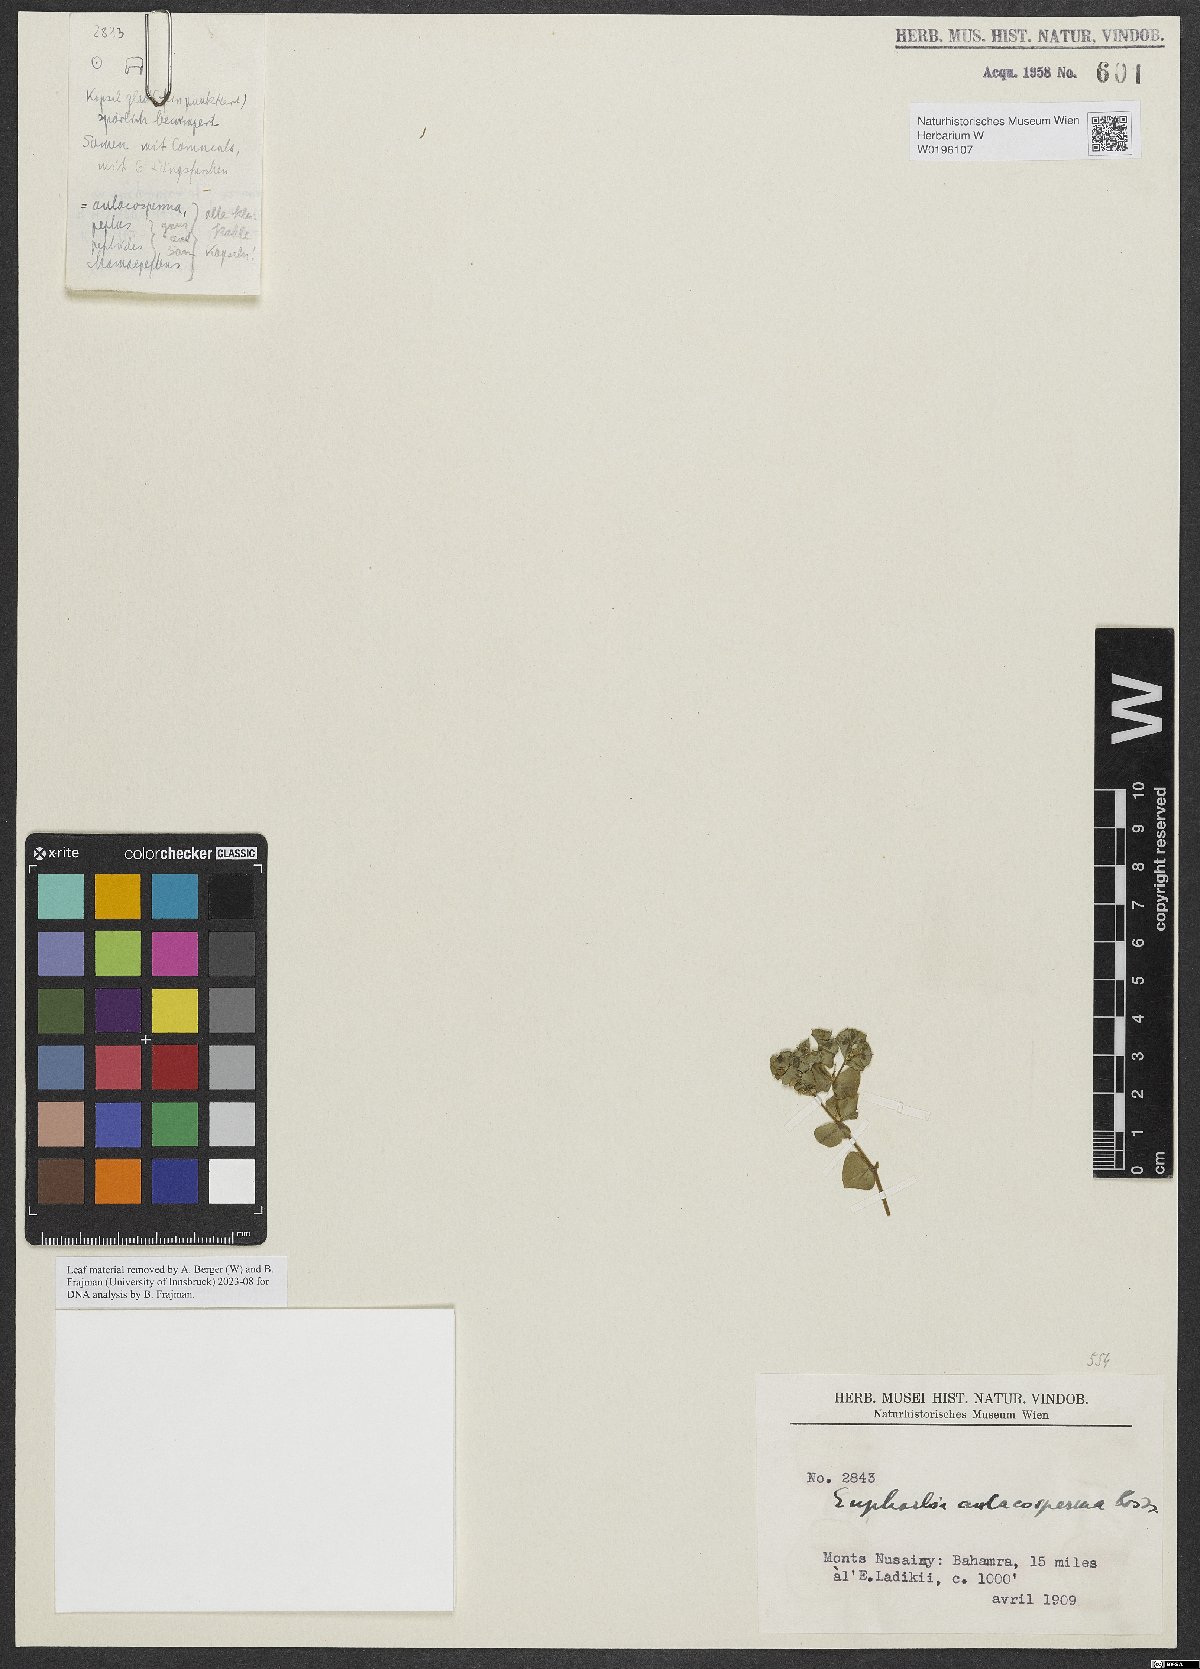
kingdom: Plantae
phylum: Tracheophyta
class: Magnoliopsida
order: Malpighiales
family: Euphorbiaceae
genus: Euphorbia
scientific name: Euphorbia aulacosperma
